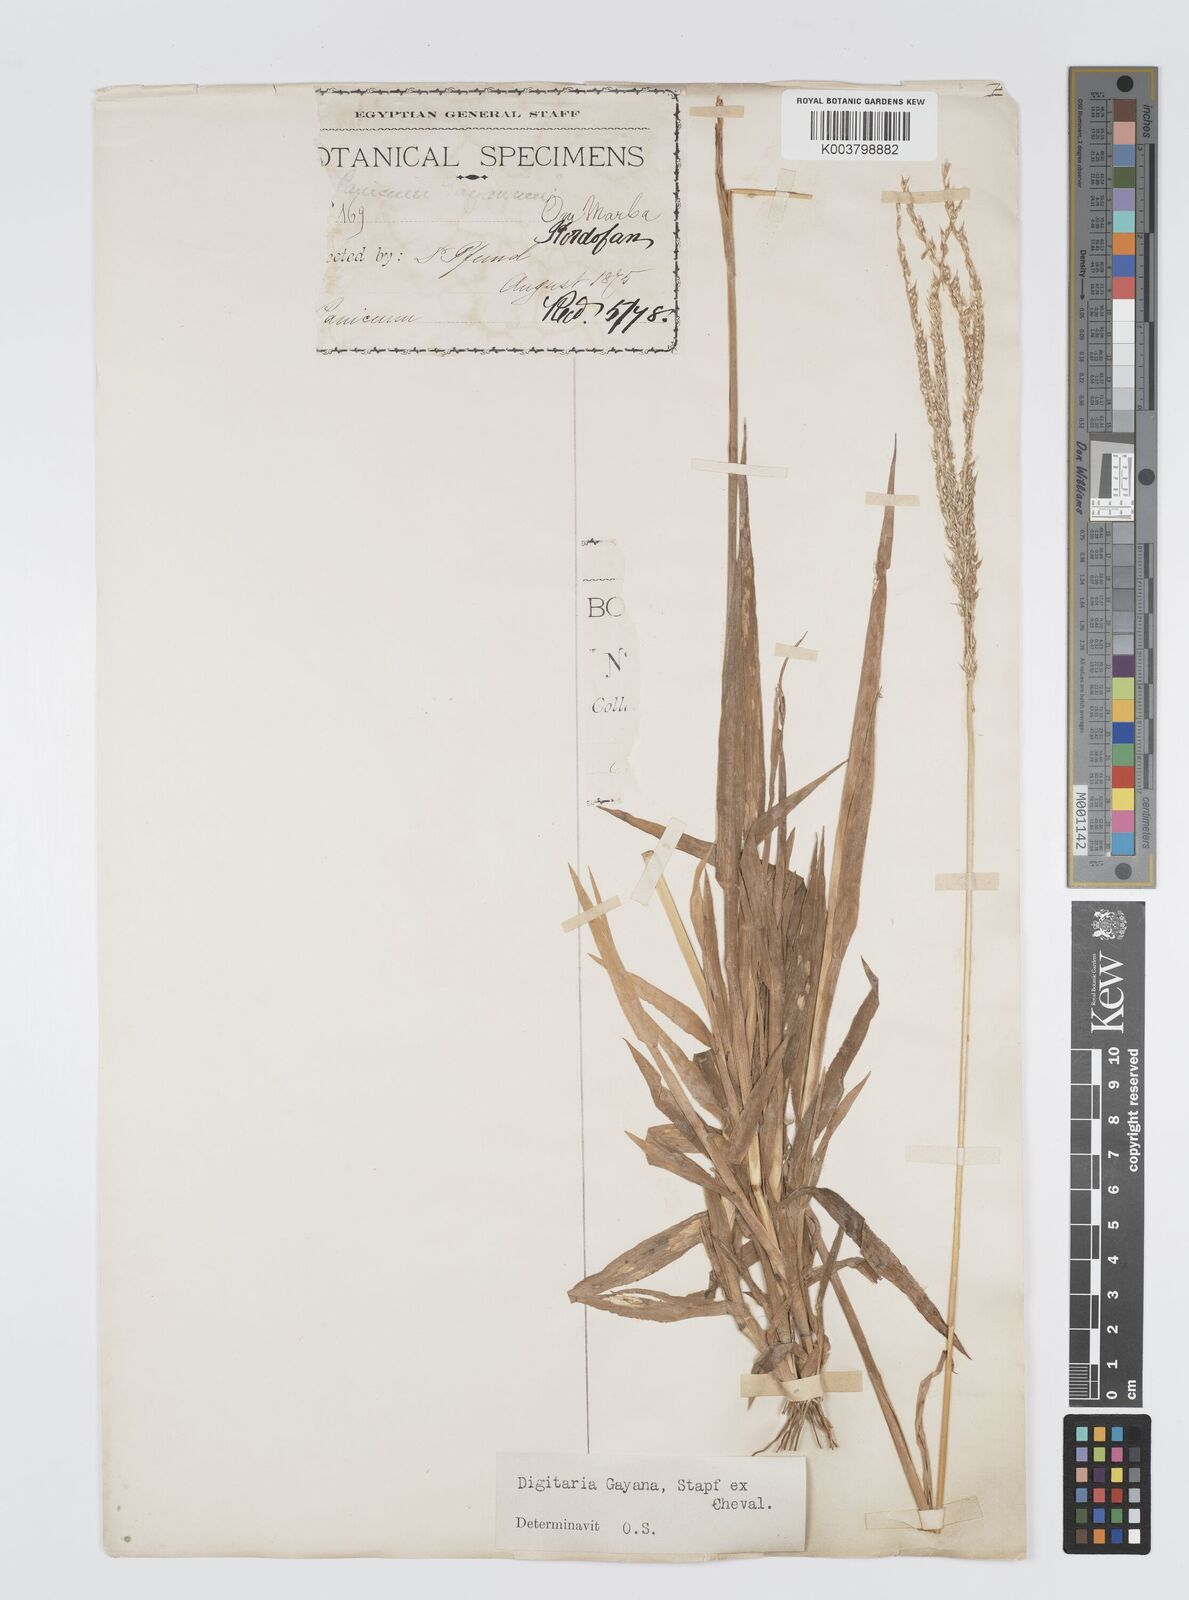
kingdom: Plantae
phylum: Tracheophyta
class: Liliopsida
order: Poales
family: Poaceae
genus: Digitaria
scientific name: Digitaria gayana
